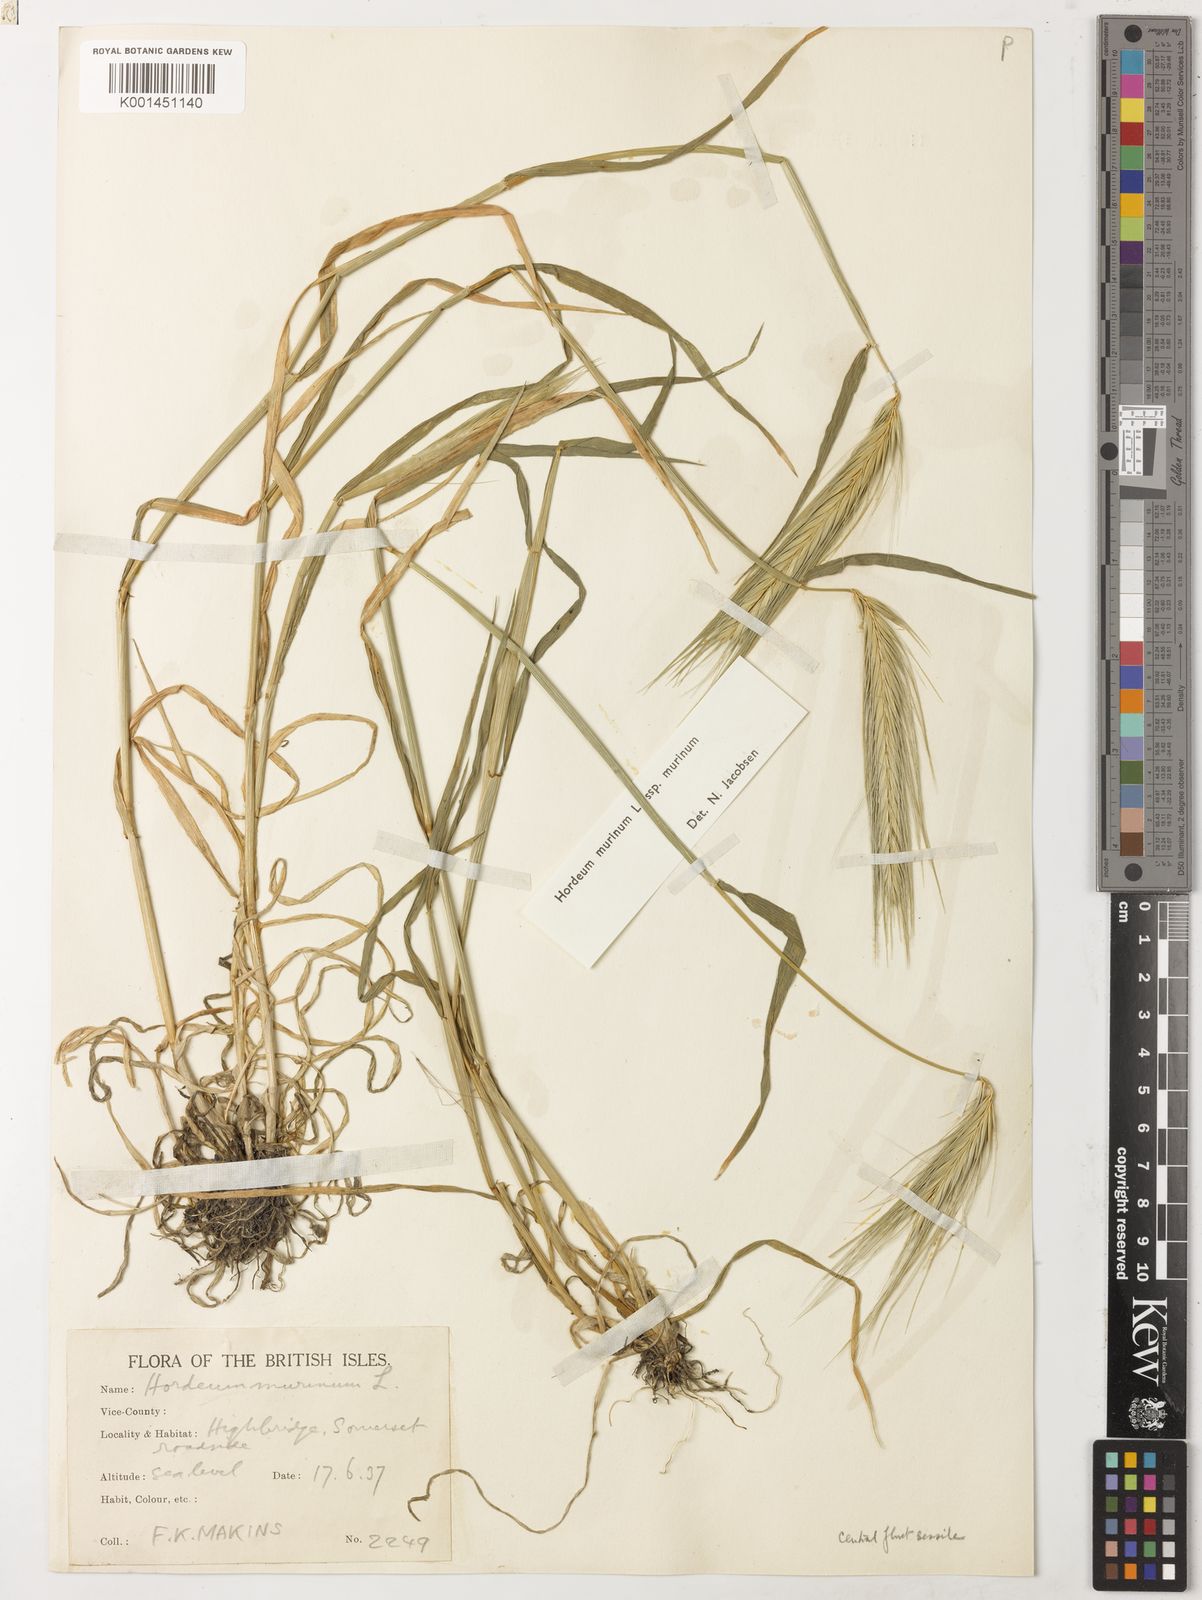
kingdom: Plantae
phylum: Tracheophyta
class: Liliopsida
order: Poales
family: Poaceae
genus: Hordeum
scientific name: Hordeum murinum
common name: Wall barley
